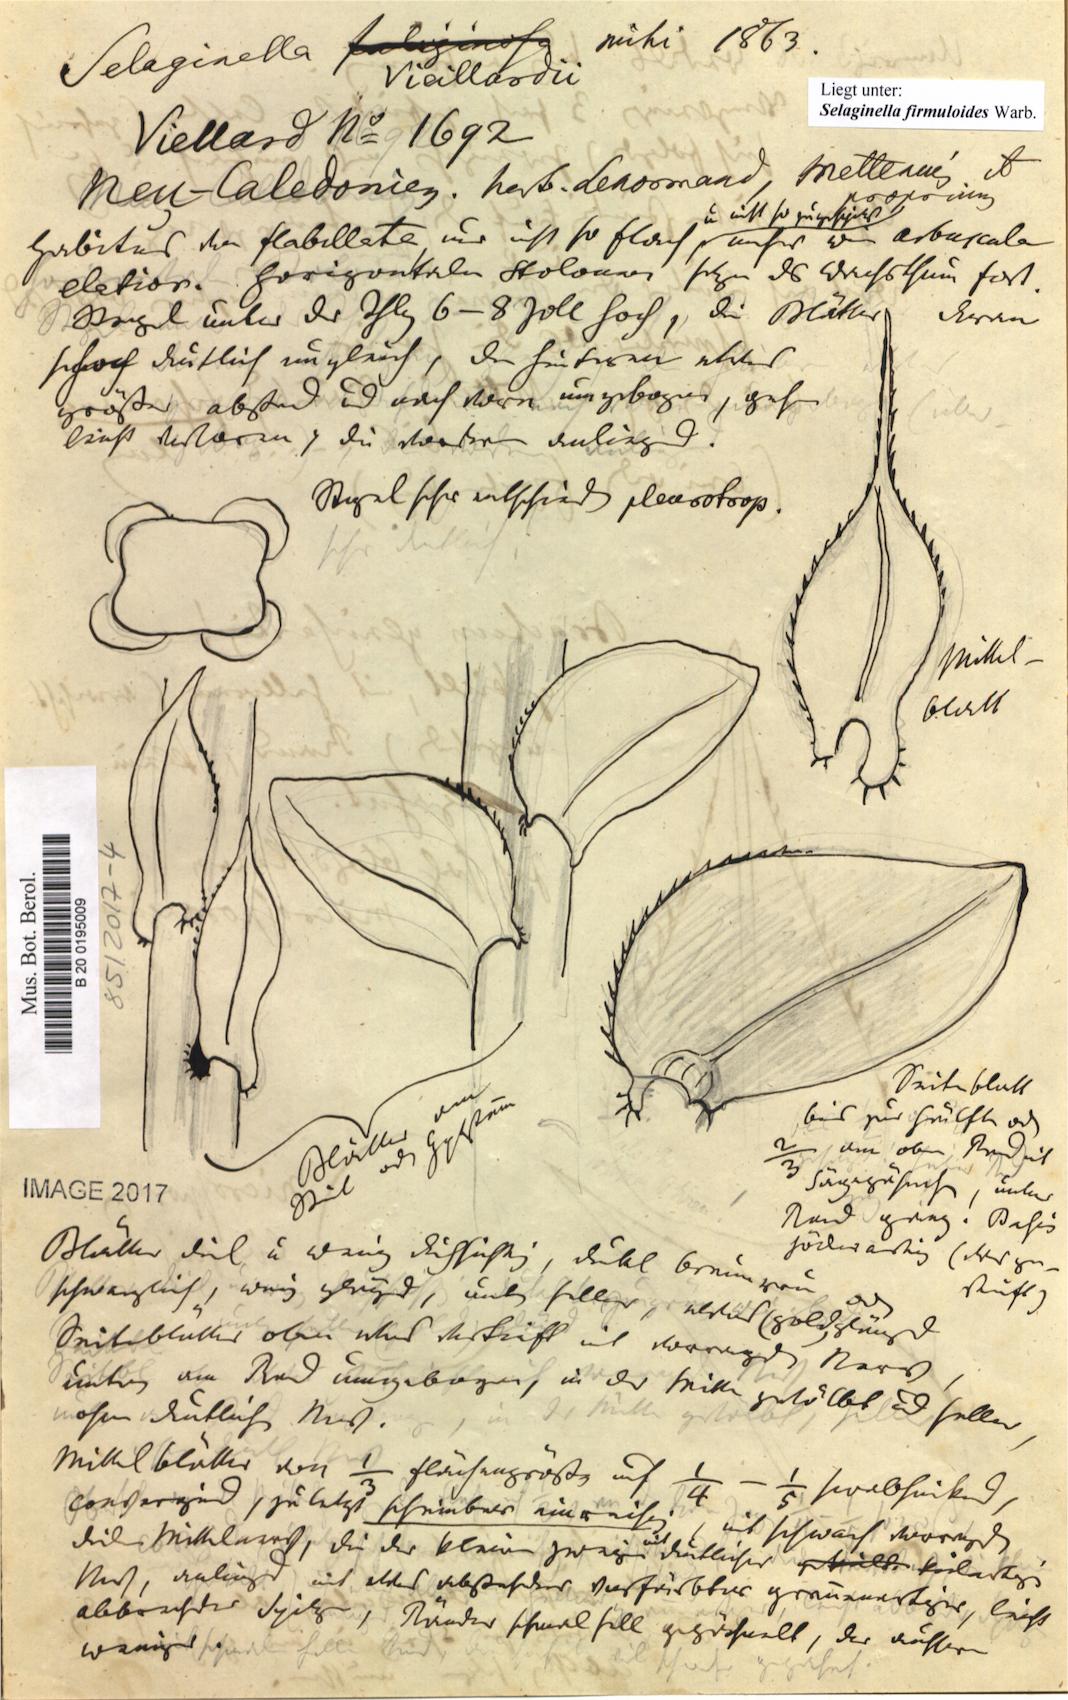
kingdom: Plantae
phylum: Tracheophyta
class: Lycopodiopsida
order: Selaginellales
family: Selaginellaceae
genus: Selaginella
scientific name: Selaginella firmuloides
